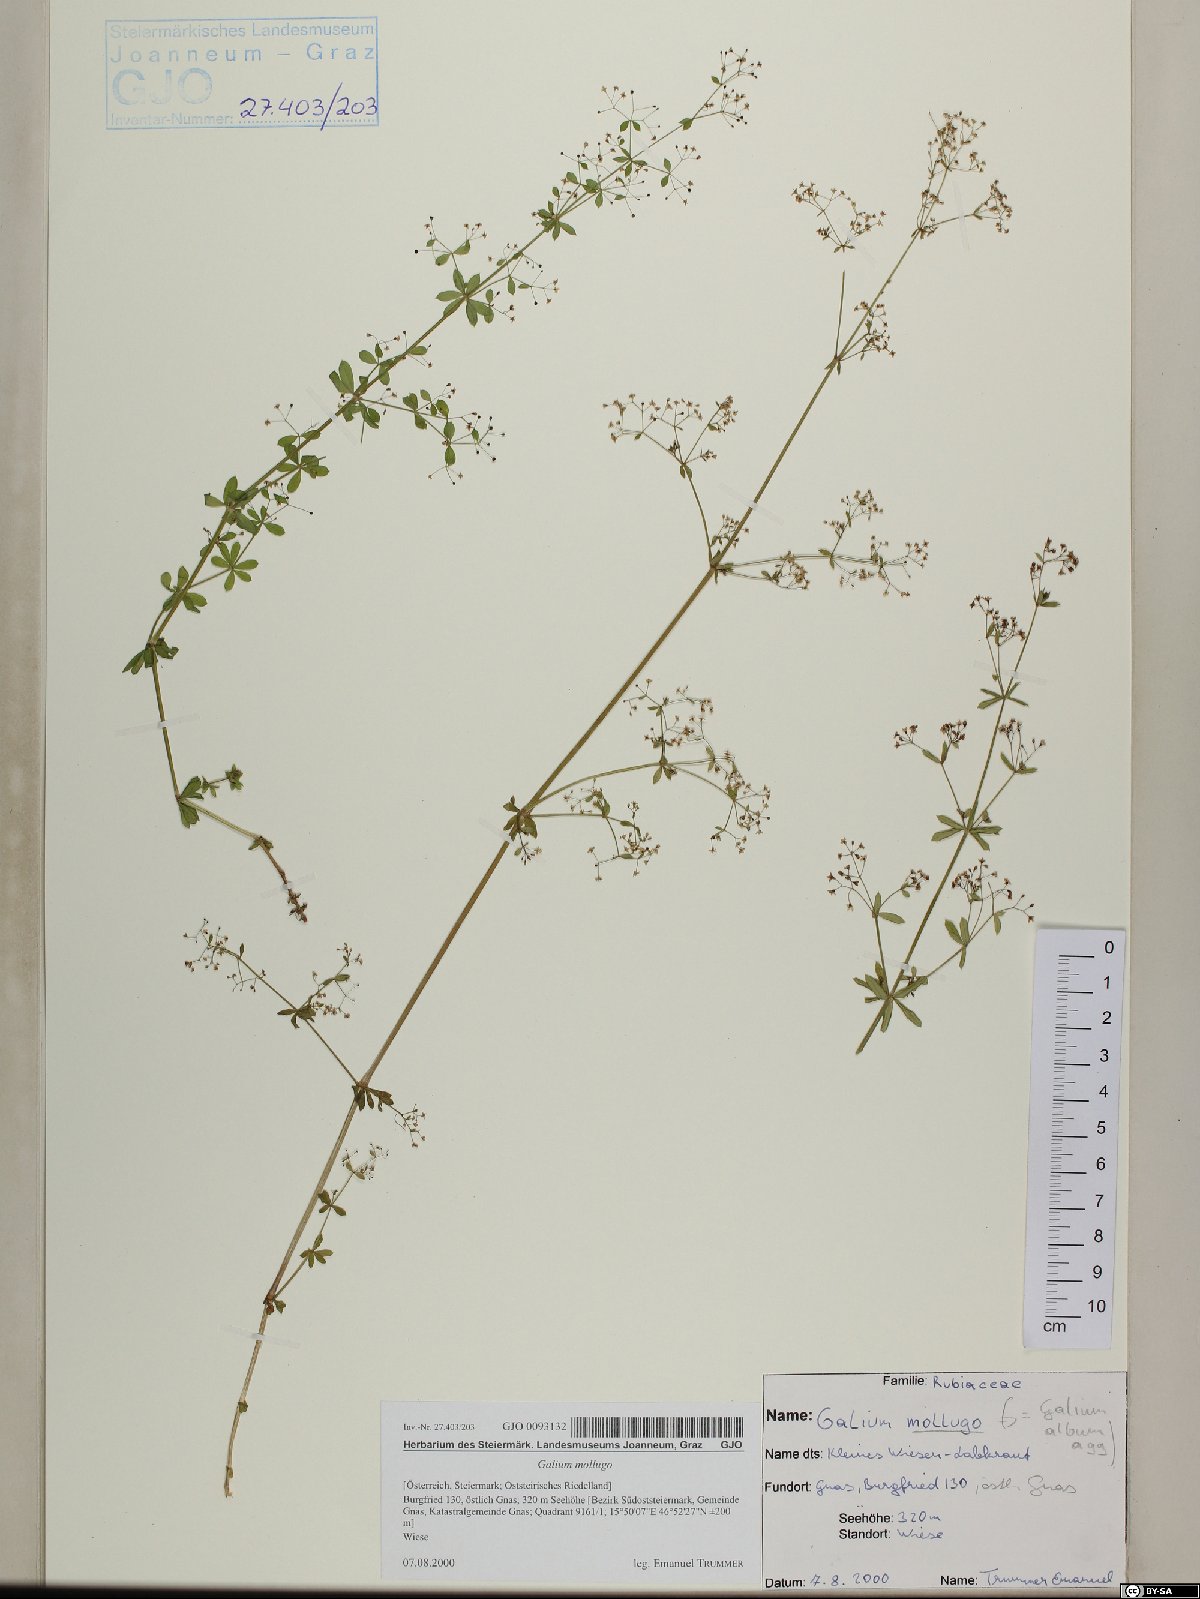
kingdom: Plantae
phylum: Tracheophyta
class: Magnoliopsida
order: Gentianales
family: Rubiaceae
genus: Galium
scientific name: Galium mollugo
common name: Hedge bedstraw
